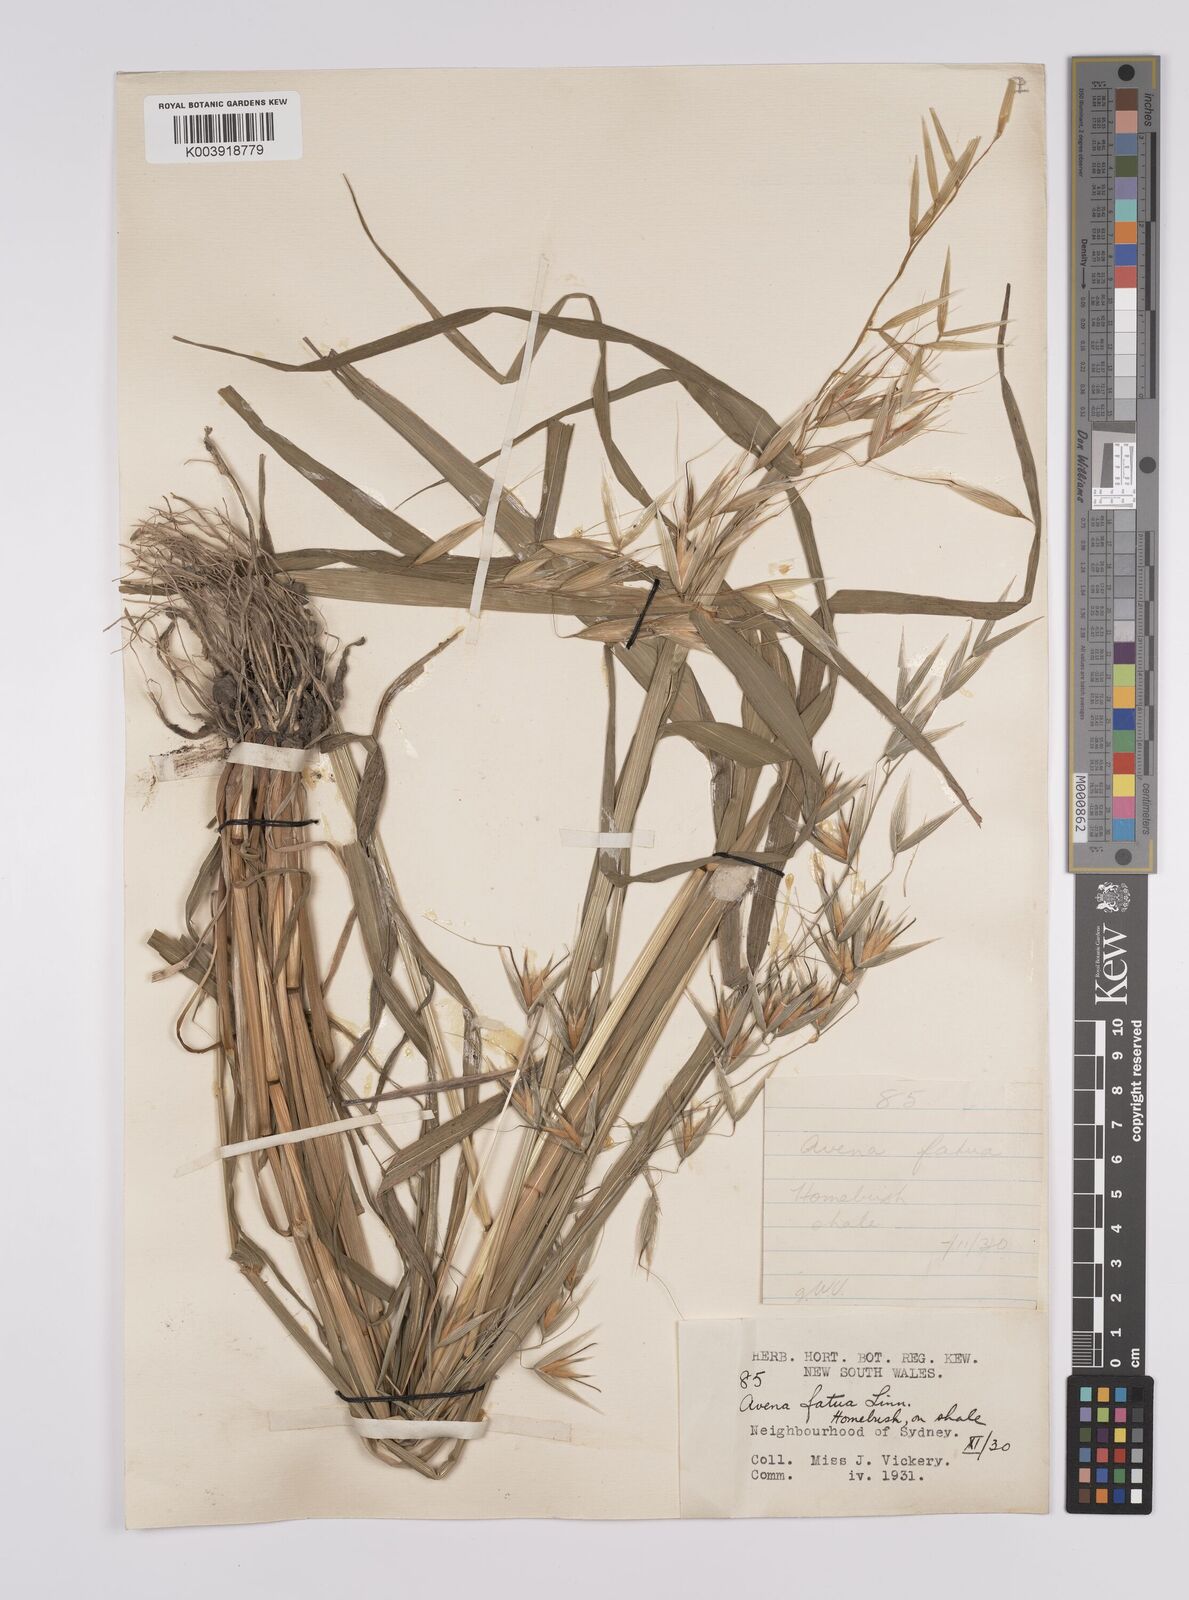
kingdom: Plantae
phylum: Tracheophyta
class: Liliopsida
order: Poales
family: Poaceae
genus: Avena
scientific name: Avena fatua
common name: Wild oat
